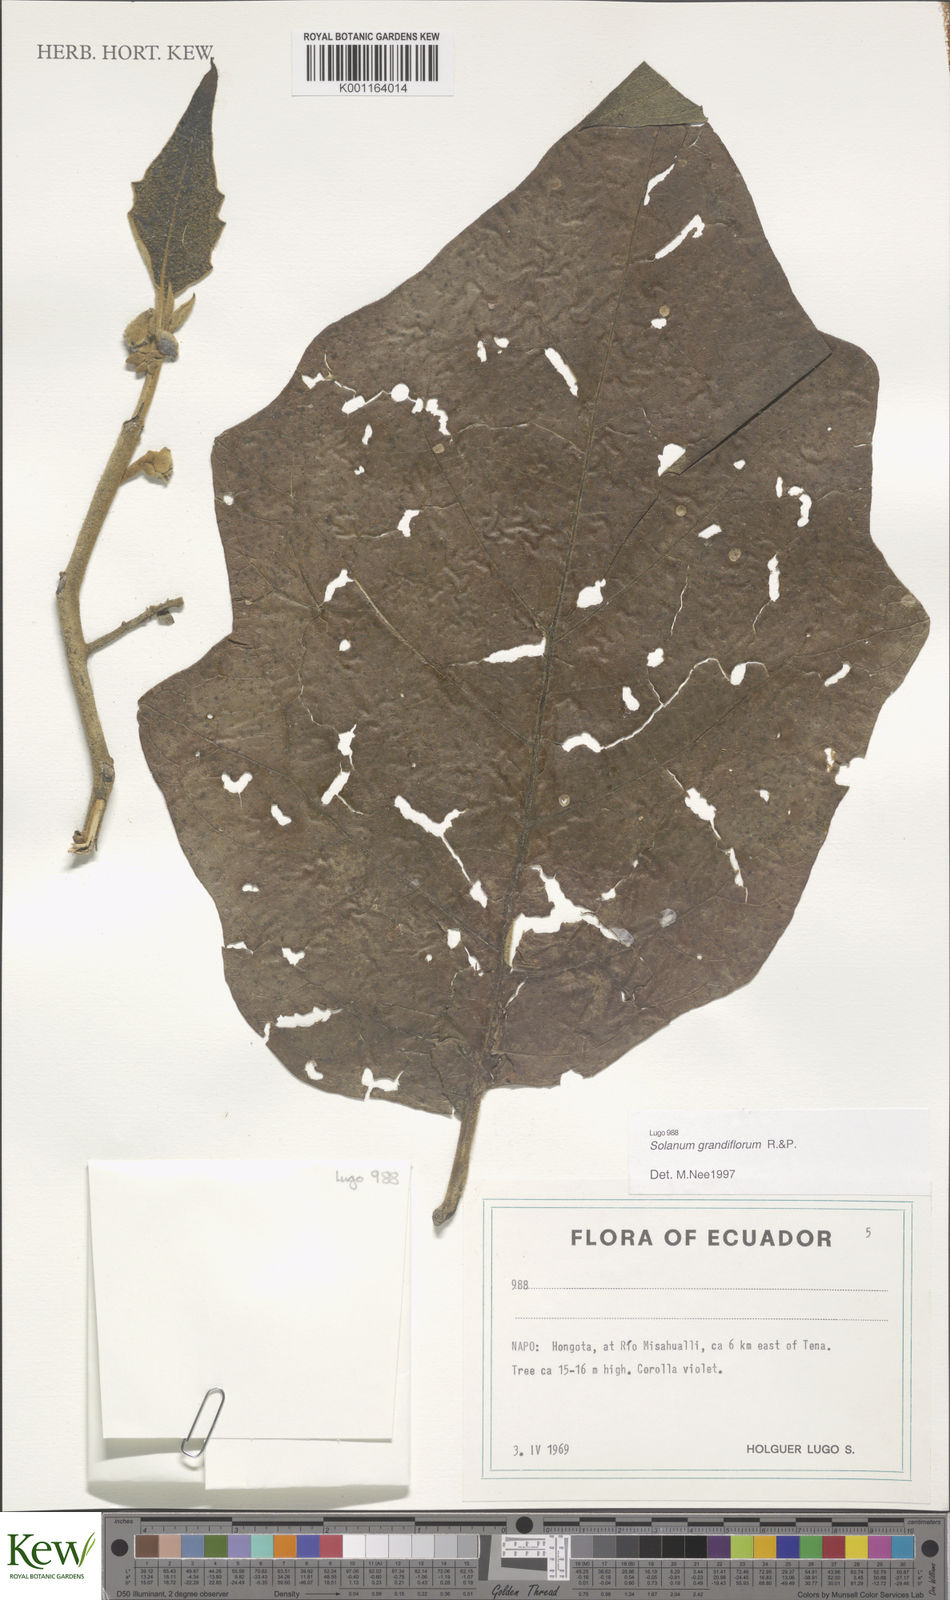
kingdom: Plantae
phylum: Tracheophyta
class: Magnoliopsida
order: Solanales
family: Solanaceae
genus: Solanum
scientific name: Solanum grandiflorum
